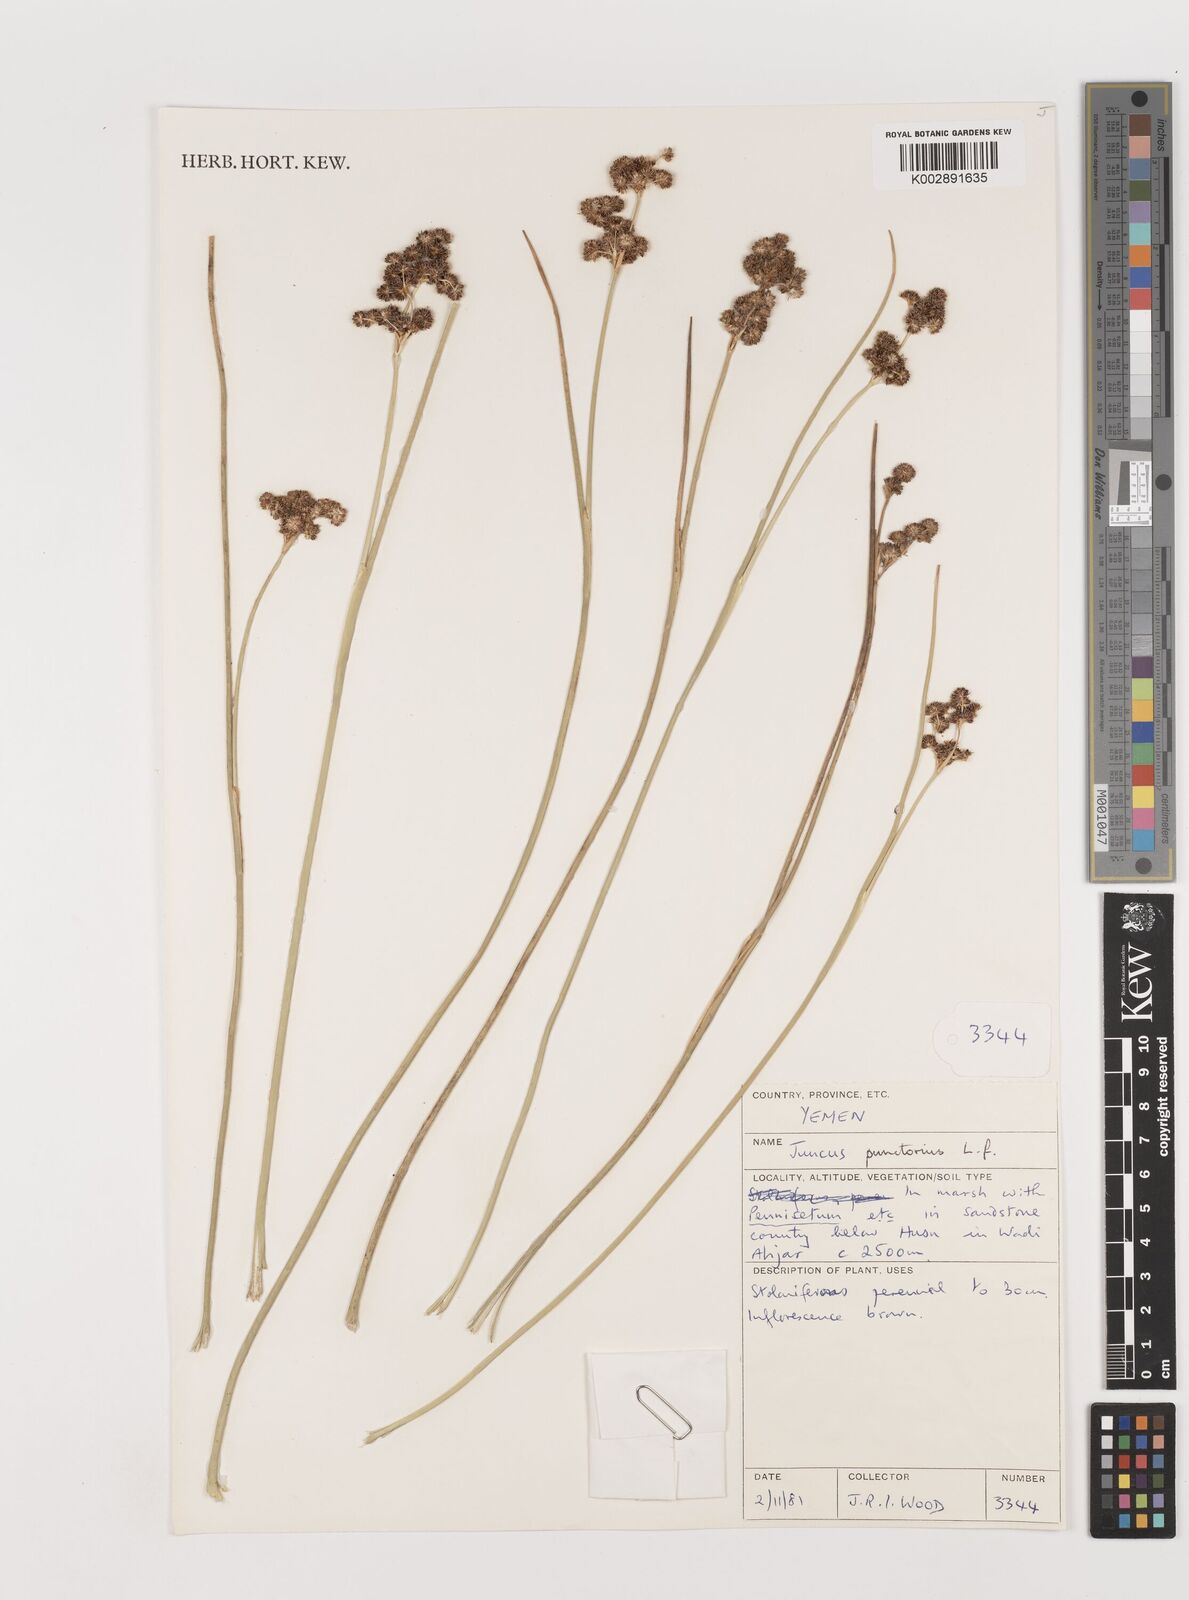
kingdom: Plantae
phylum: Tracheophyta
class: Liliopsida
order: Poales
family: Juncaceae
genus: Juncus
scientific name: Juncus punctorius
